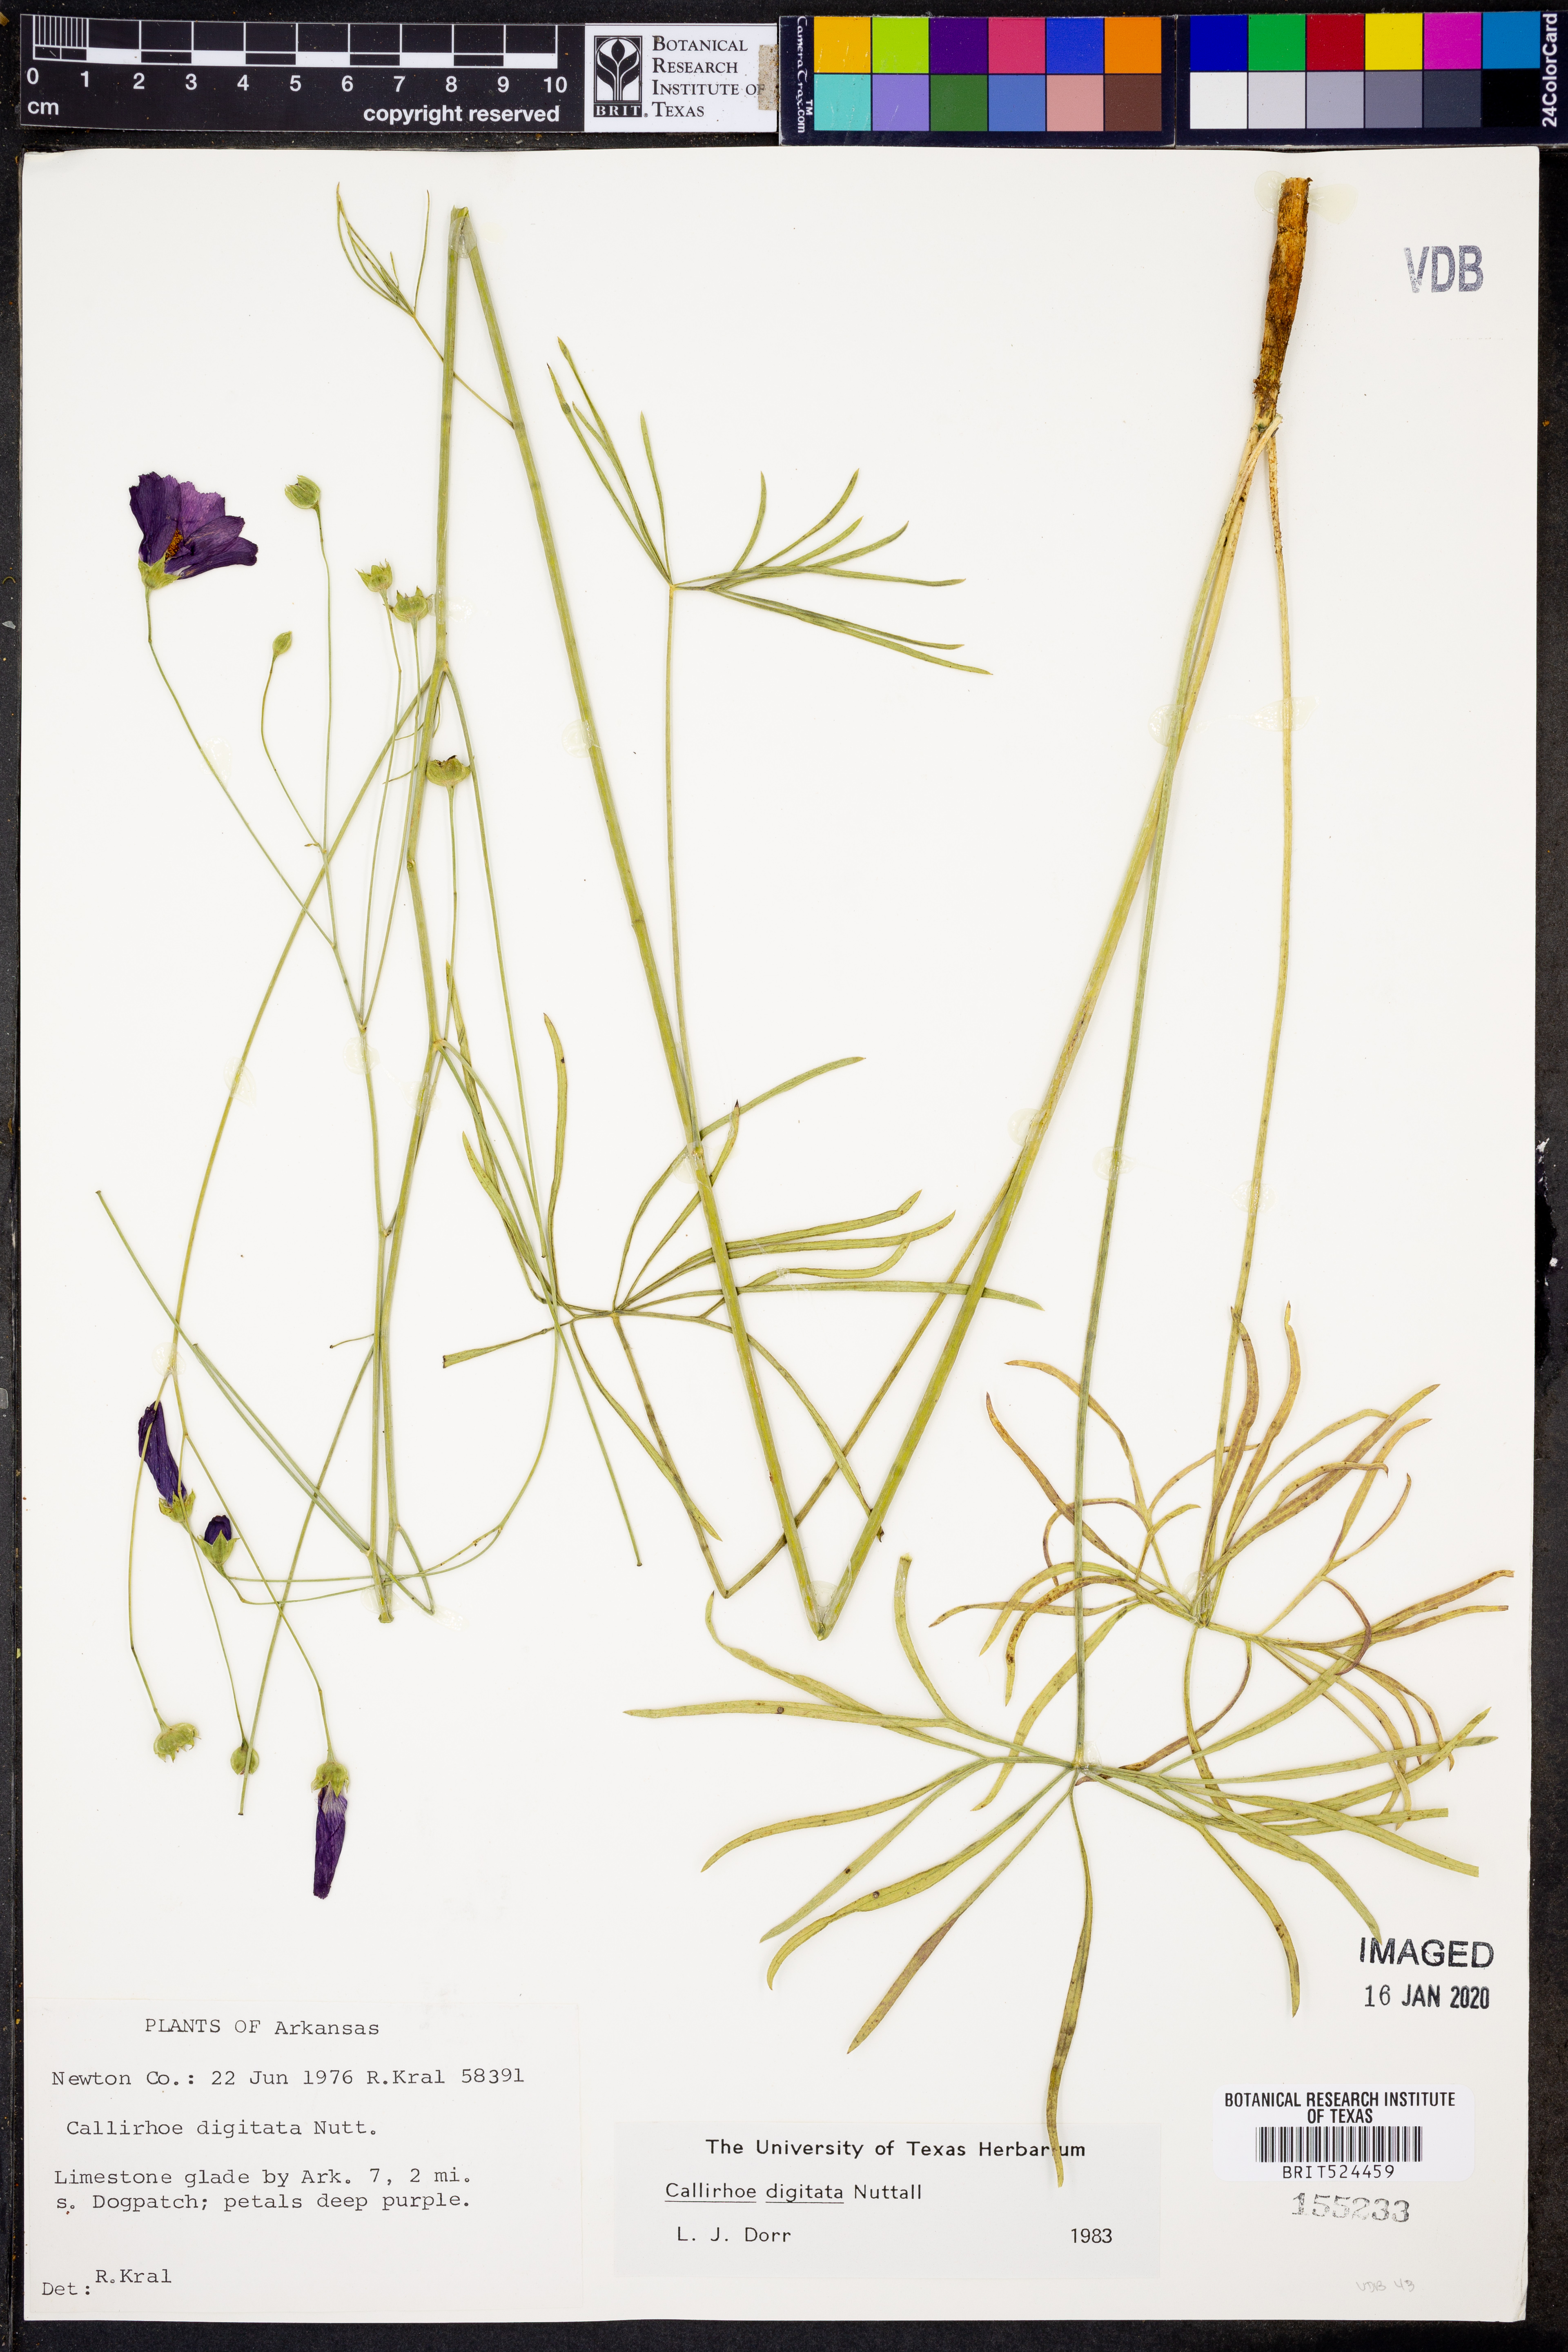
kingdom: Plantae
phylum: Tracheophyta
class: Magnoliopsida
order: Malvales
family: Malvaceae
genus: Callirhoe
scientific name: Callirhoe digitata
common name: Finger poppy-mallow
